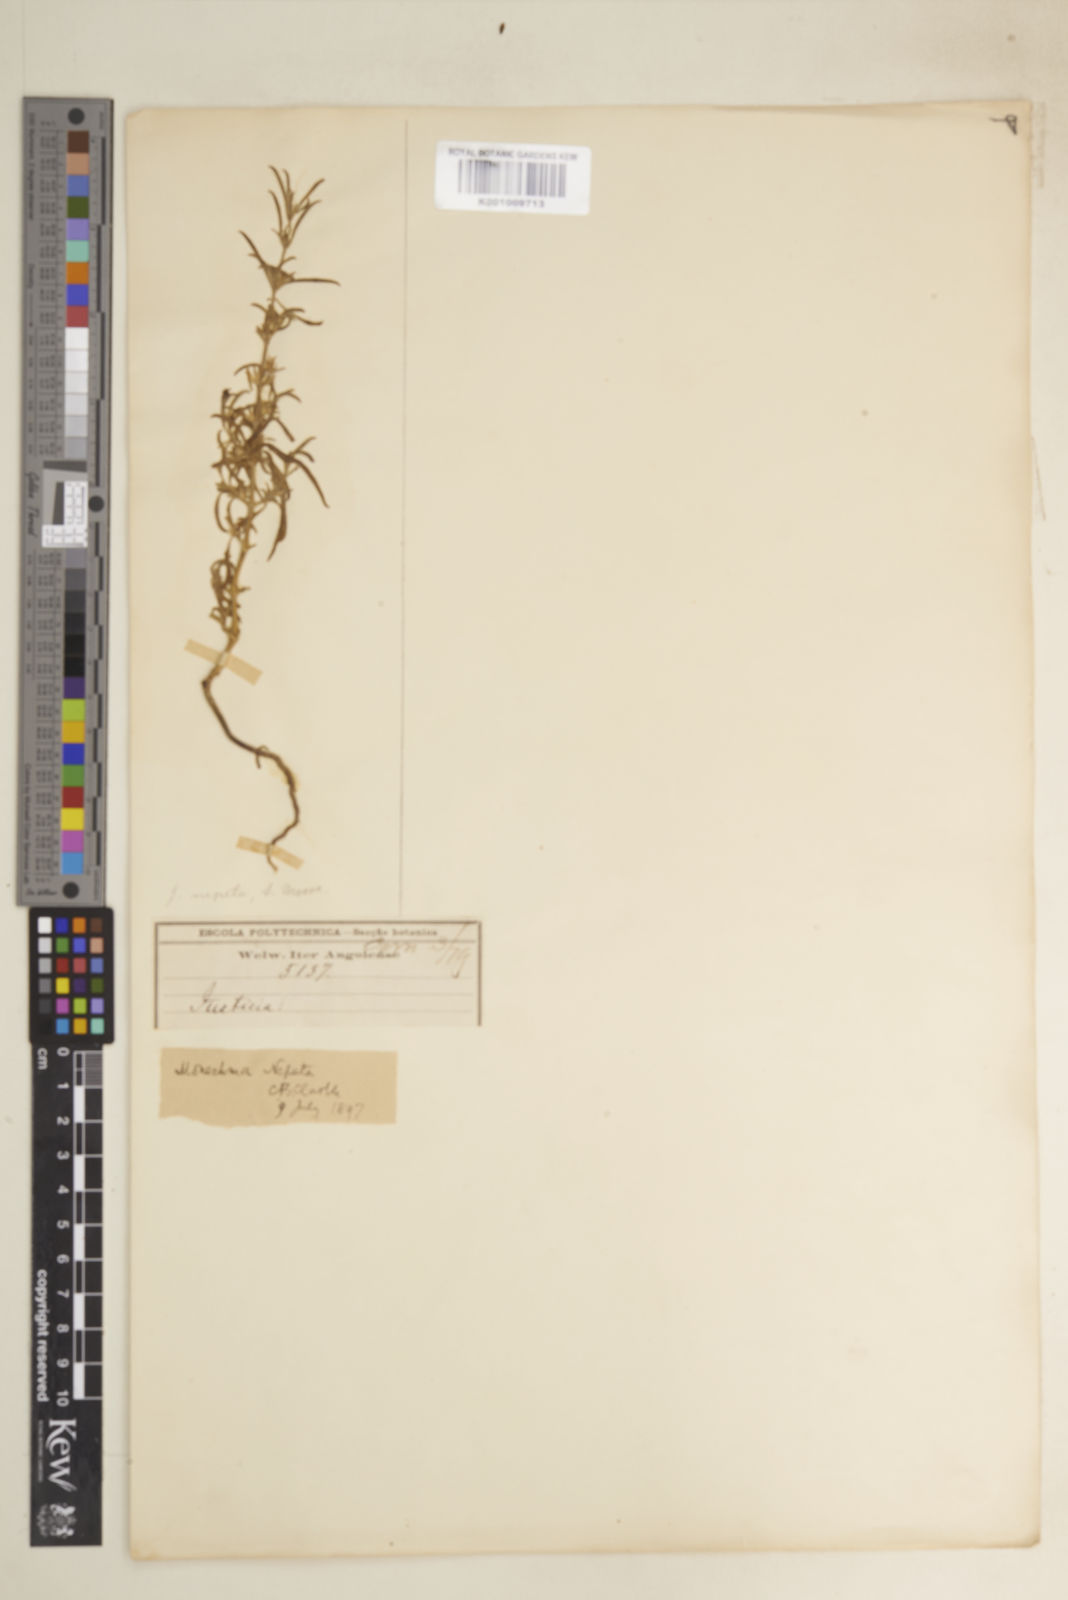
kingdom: Plantae
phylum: Tracheophyta
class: Magnoliopsida
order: Lamiales
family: Acanthaceae
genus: Pogonospermum
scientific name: Pogonospermum
